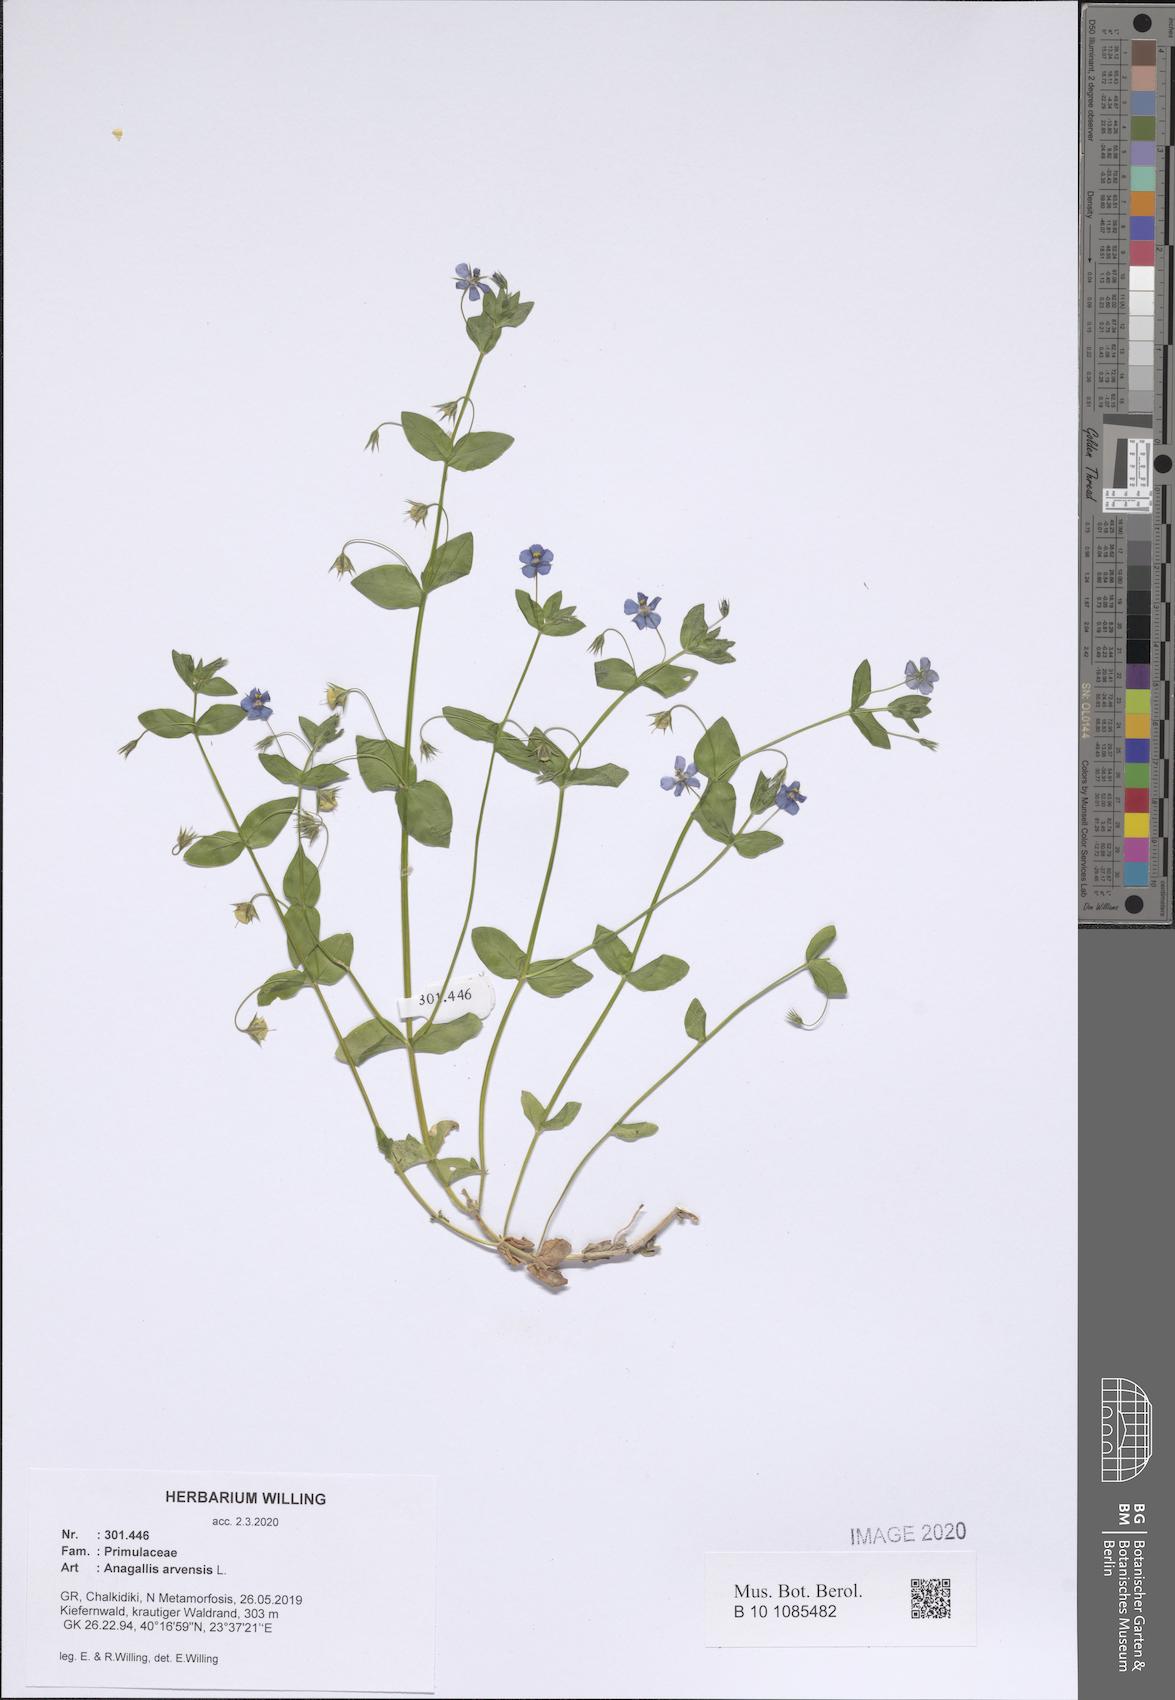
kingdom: Plantae
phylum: Tracheophyta
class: Magnoliopsida
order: Ericales
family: Primulaceae
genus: Lysimachia
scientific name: Lysimachia arvensis
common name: Scarlet pimpernel
